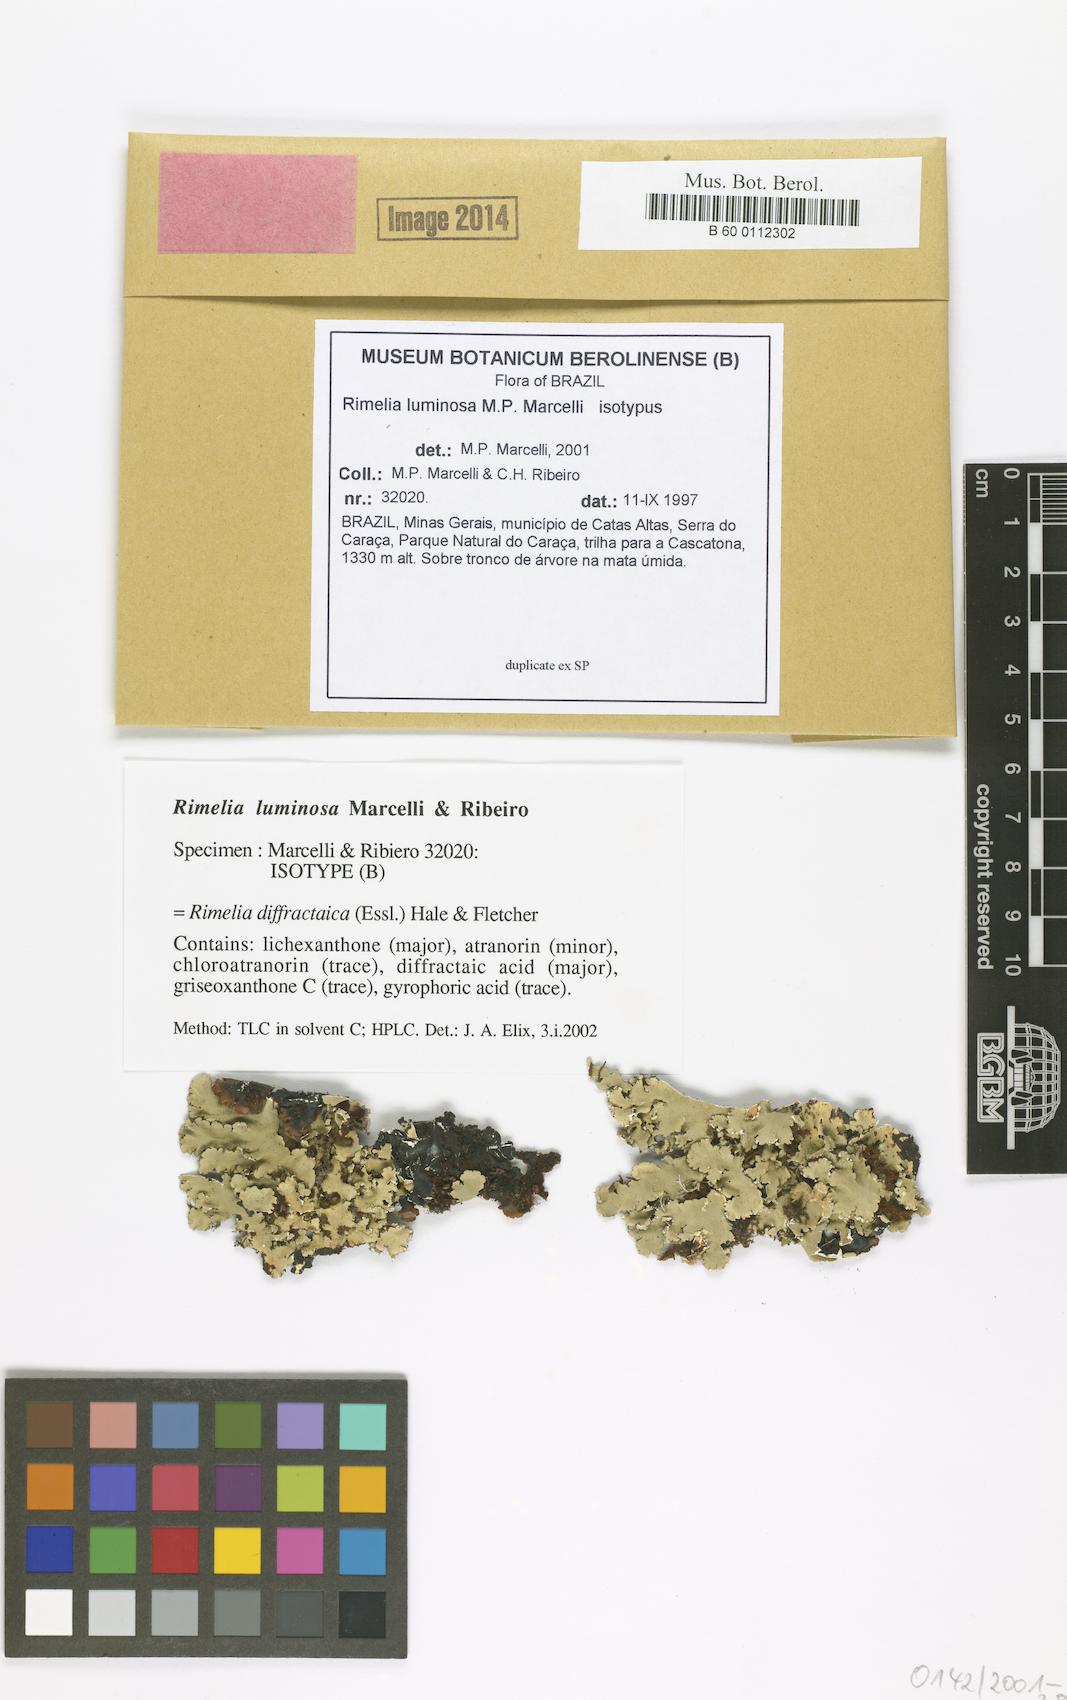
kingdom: Fungi
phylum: Ascomycota
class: Lecanoromycetes
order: Lecanorales
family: Parmeliaceae
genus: Rimelia
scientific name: Rimelia luminosa
